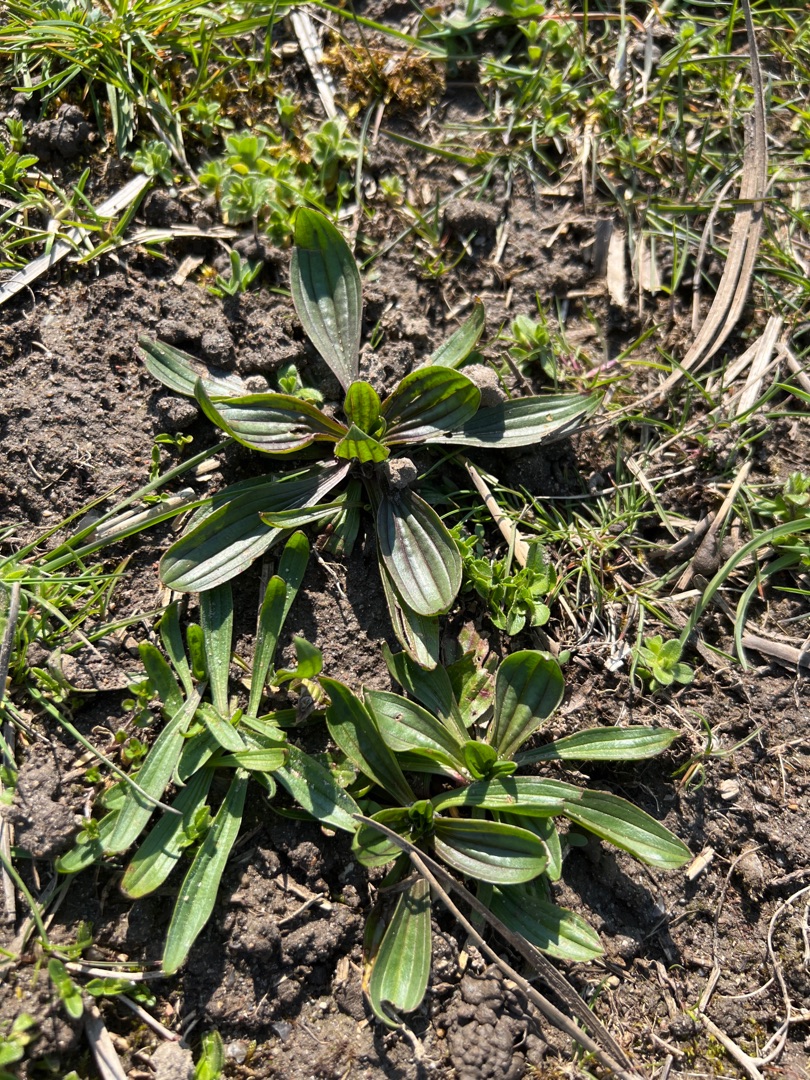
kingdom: Plantae
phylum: Tracheophyta
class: Magnoliopsida
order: Lamiales
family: Plantaginaceae
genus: Plantago
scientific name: Plantago lanceolata
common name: Lancet-vejbred
